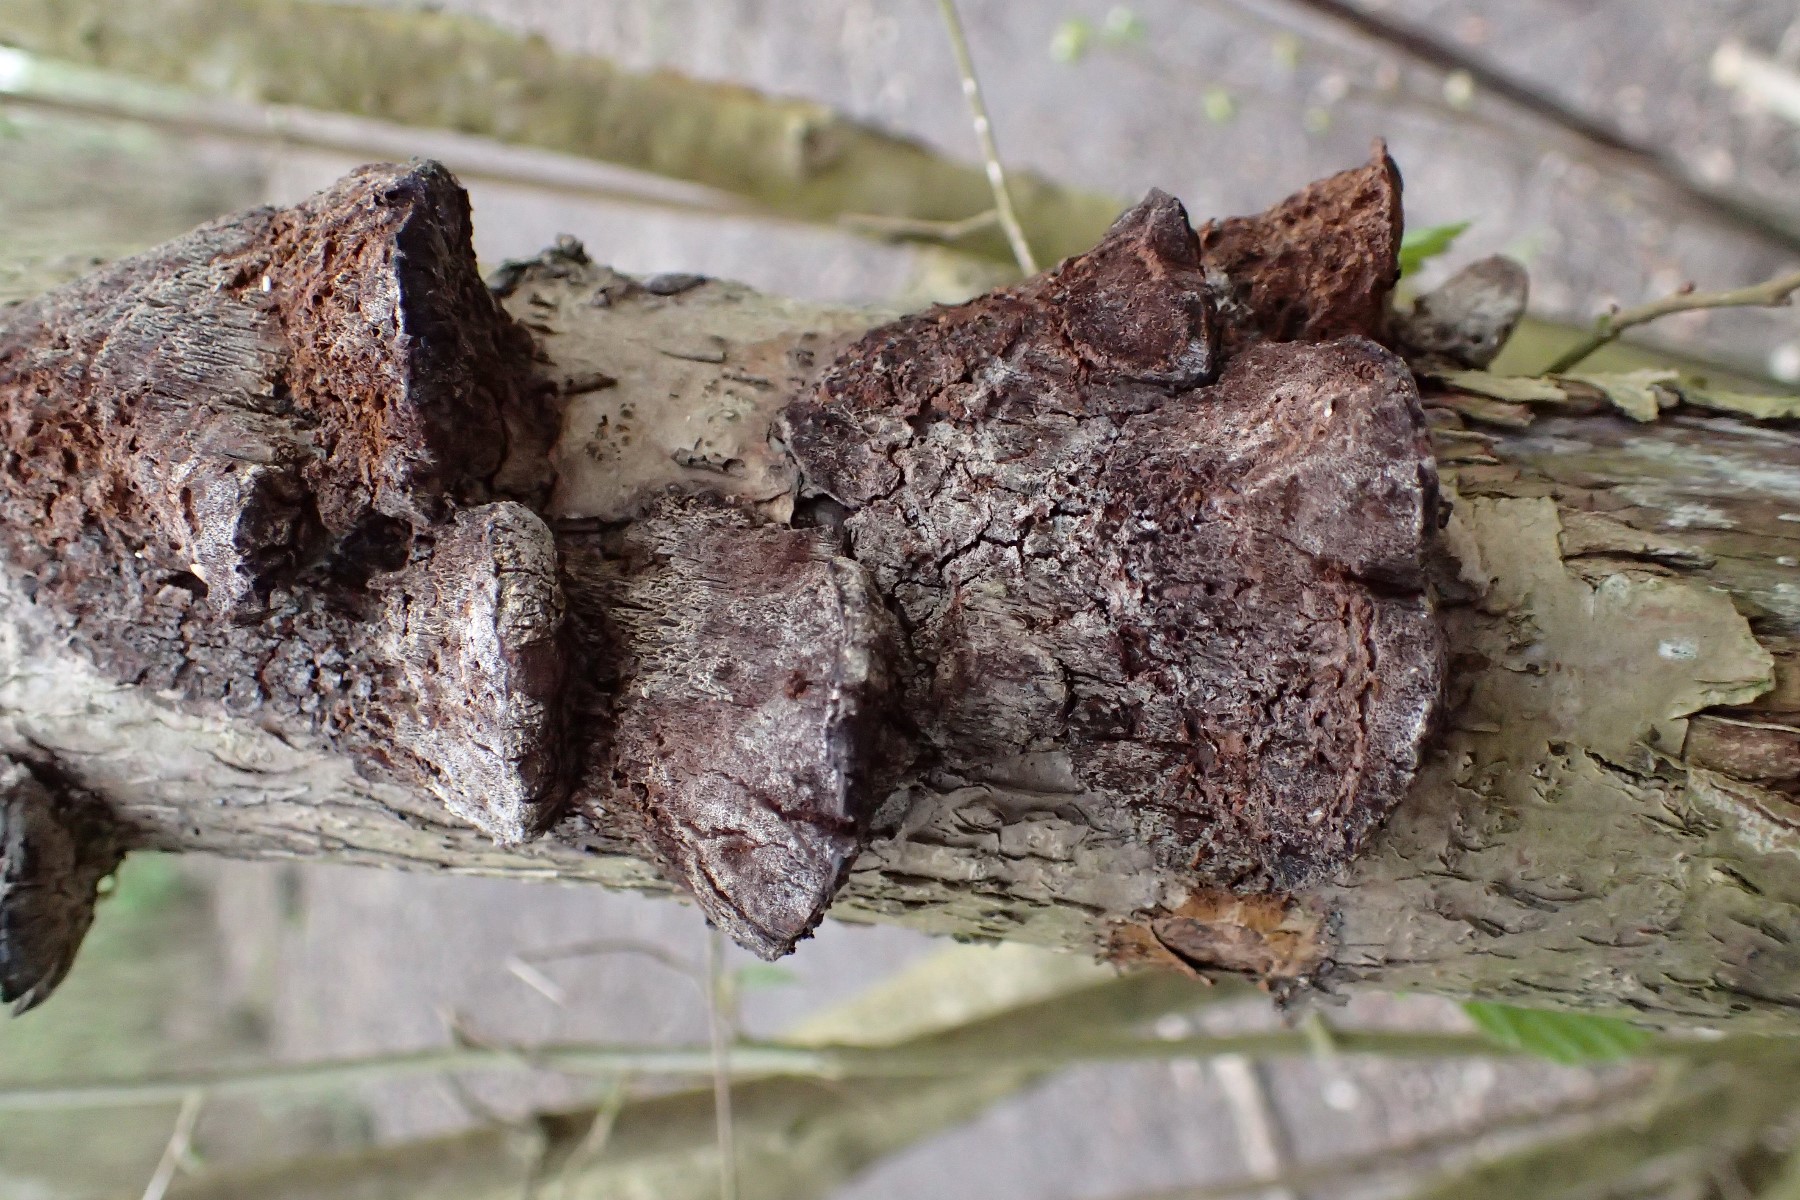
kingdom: Fungi
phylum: Basidiomycota
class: Agaricomycetes
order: Hymenochaetales
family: Hymenochaetaceae
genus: Xanthoporia
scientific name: Xanthoporia radiata
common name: elle-spejlporesvamp
